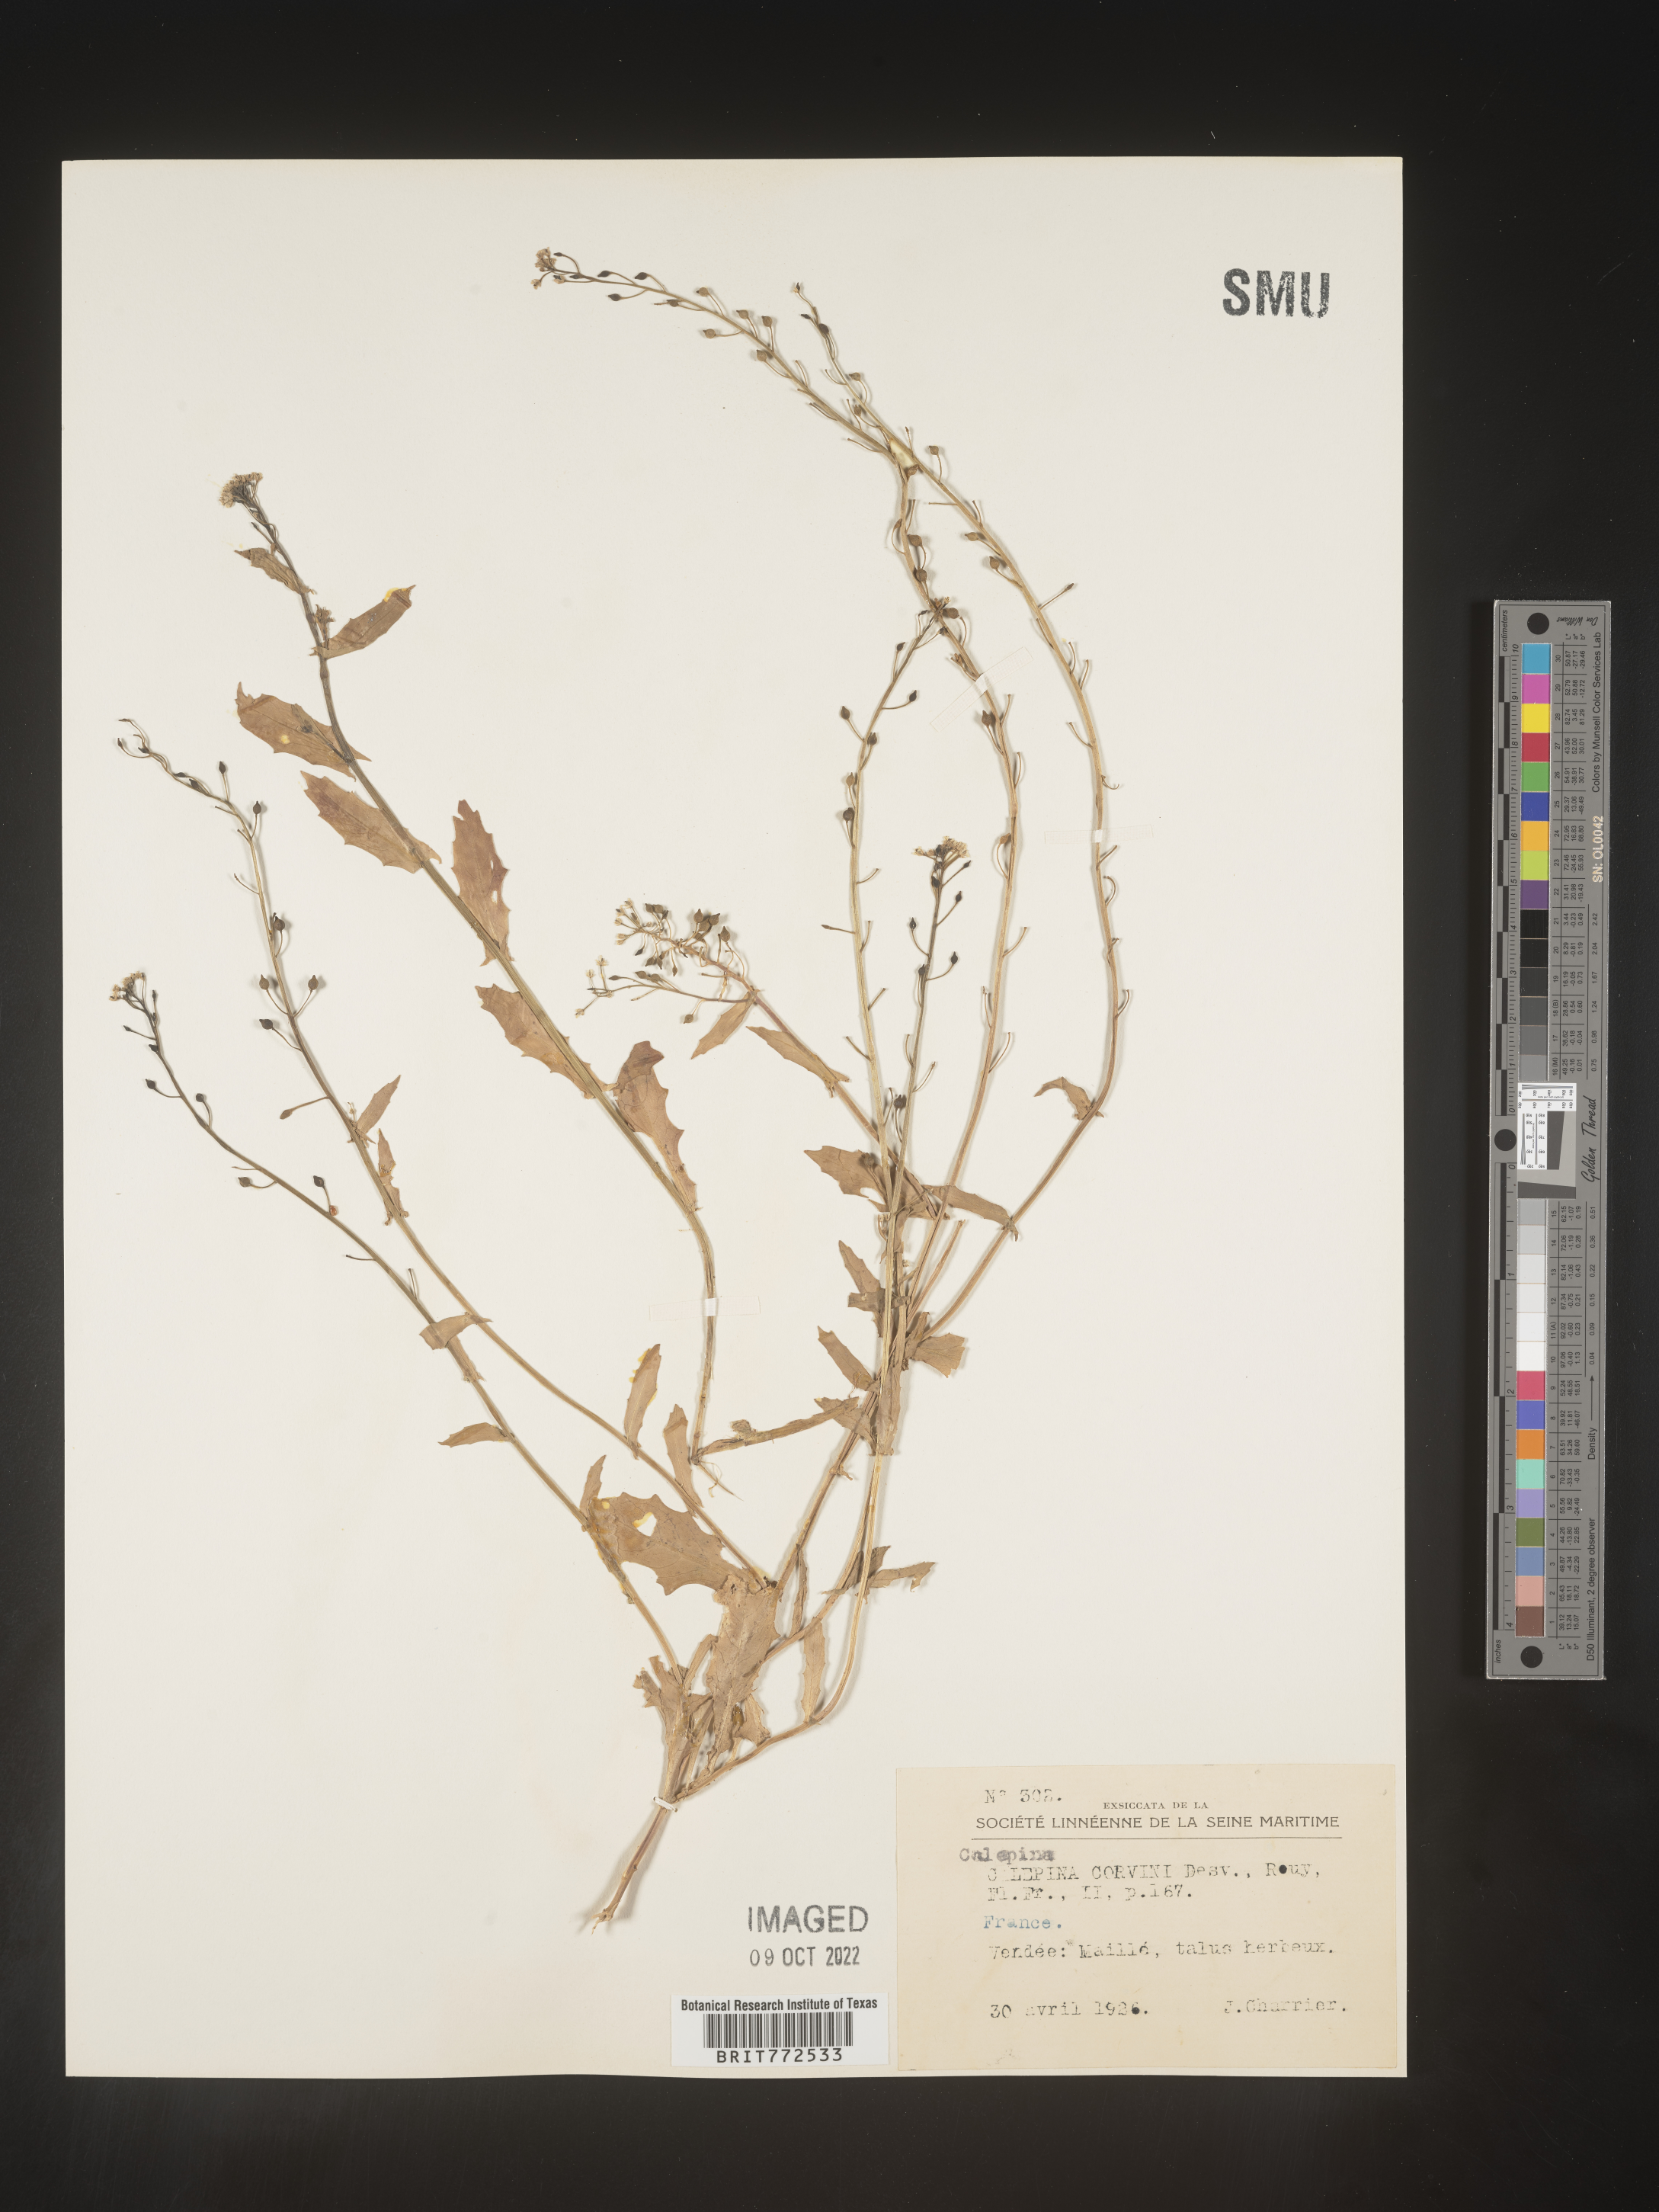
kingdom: Plantae
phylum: Tracheophyta
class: Magnoliopsida
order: Brassicales
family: Brassicaceae
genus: Calepina
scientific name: Calepina
